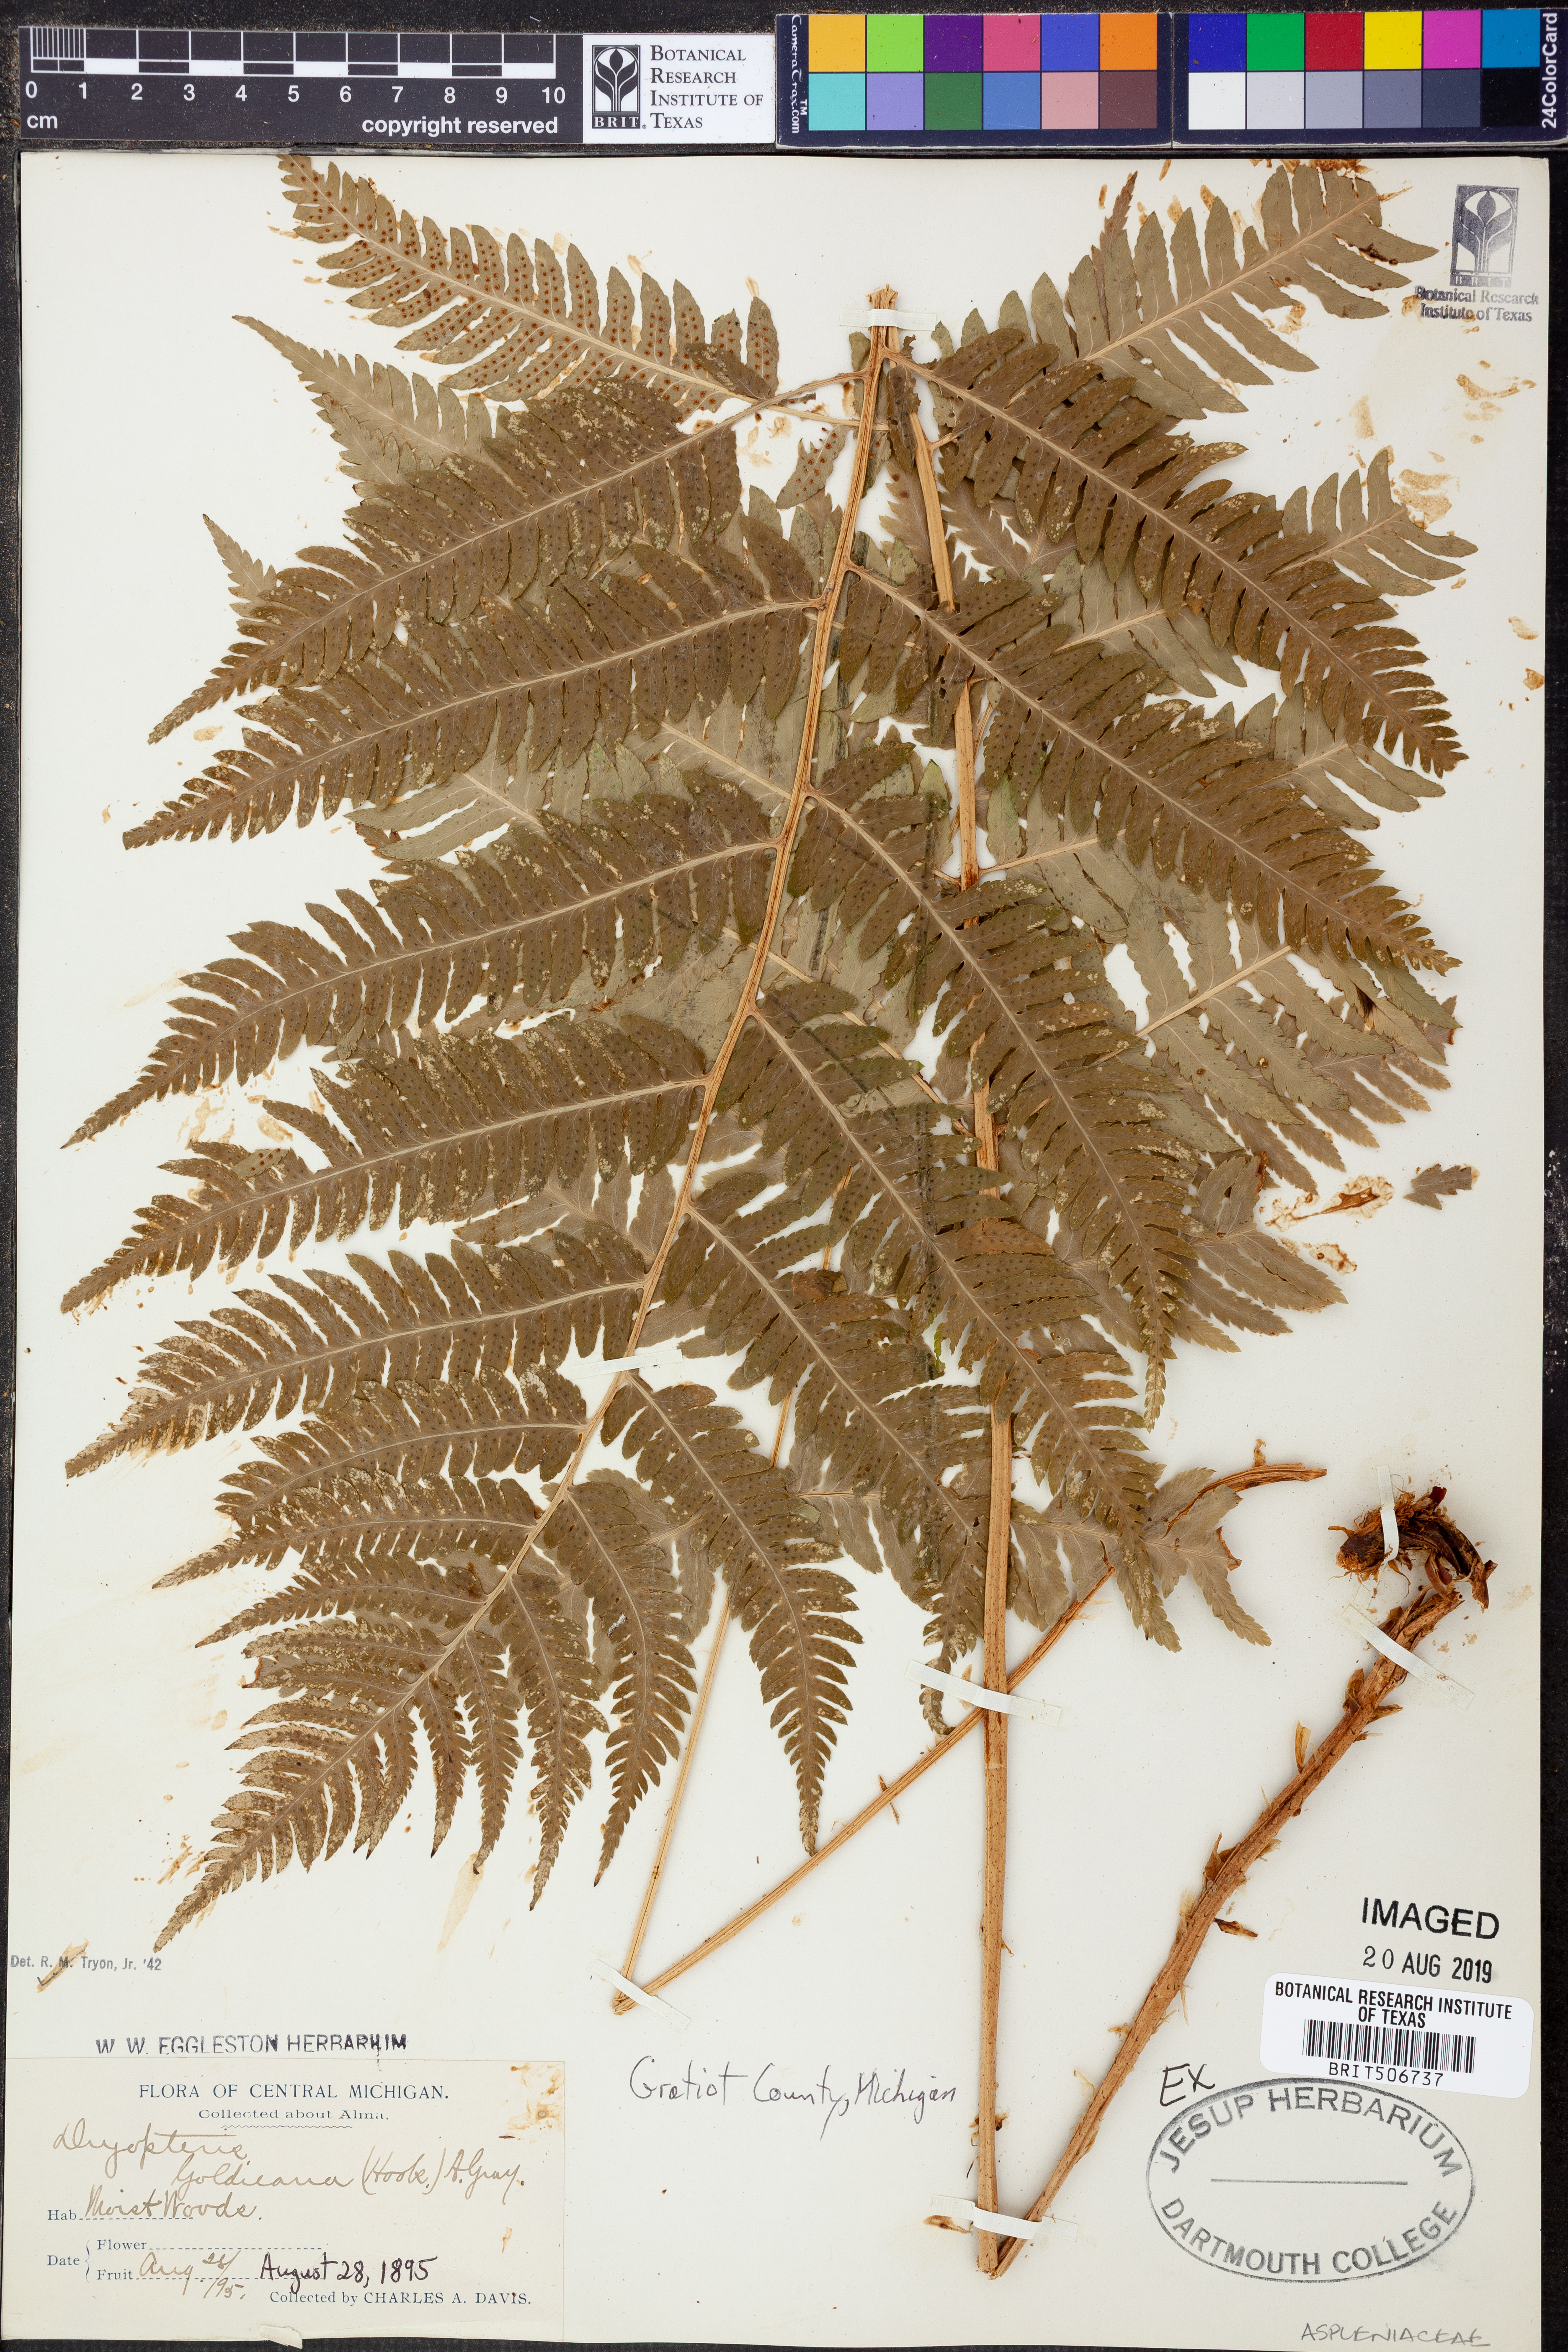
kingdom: Plantae
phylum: Tracheophyta
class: Polypodiopsida
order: Polypodiales
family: Dryopteridaceae
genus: Dryopteris
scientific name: Dryopteris goldieana
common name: Goldie's fern
